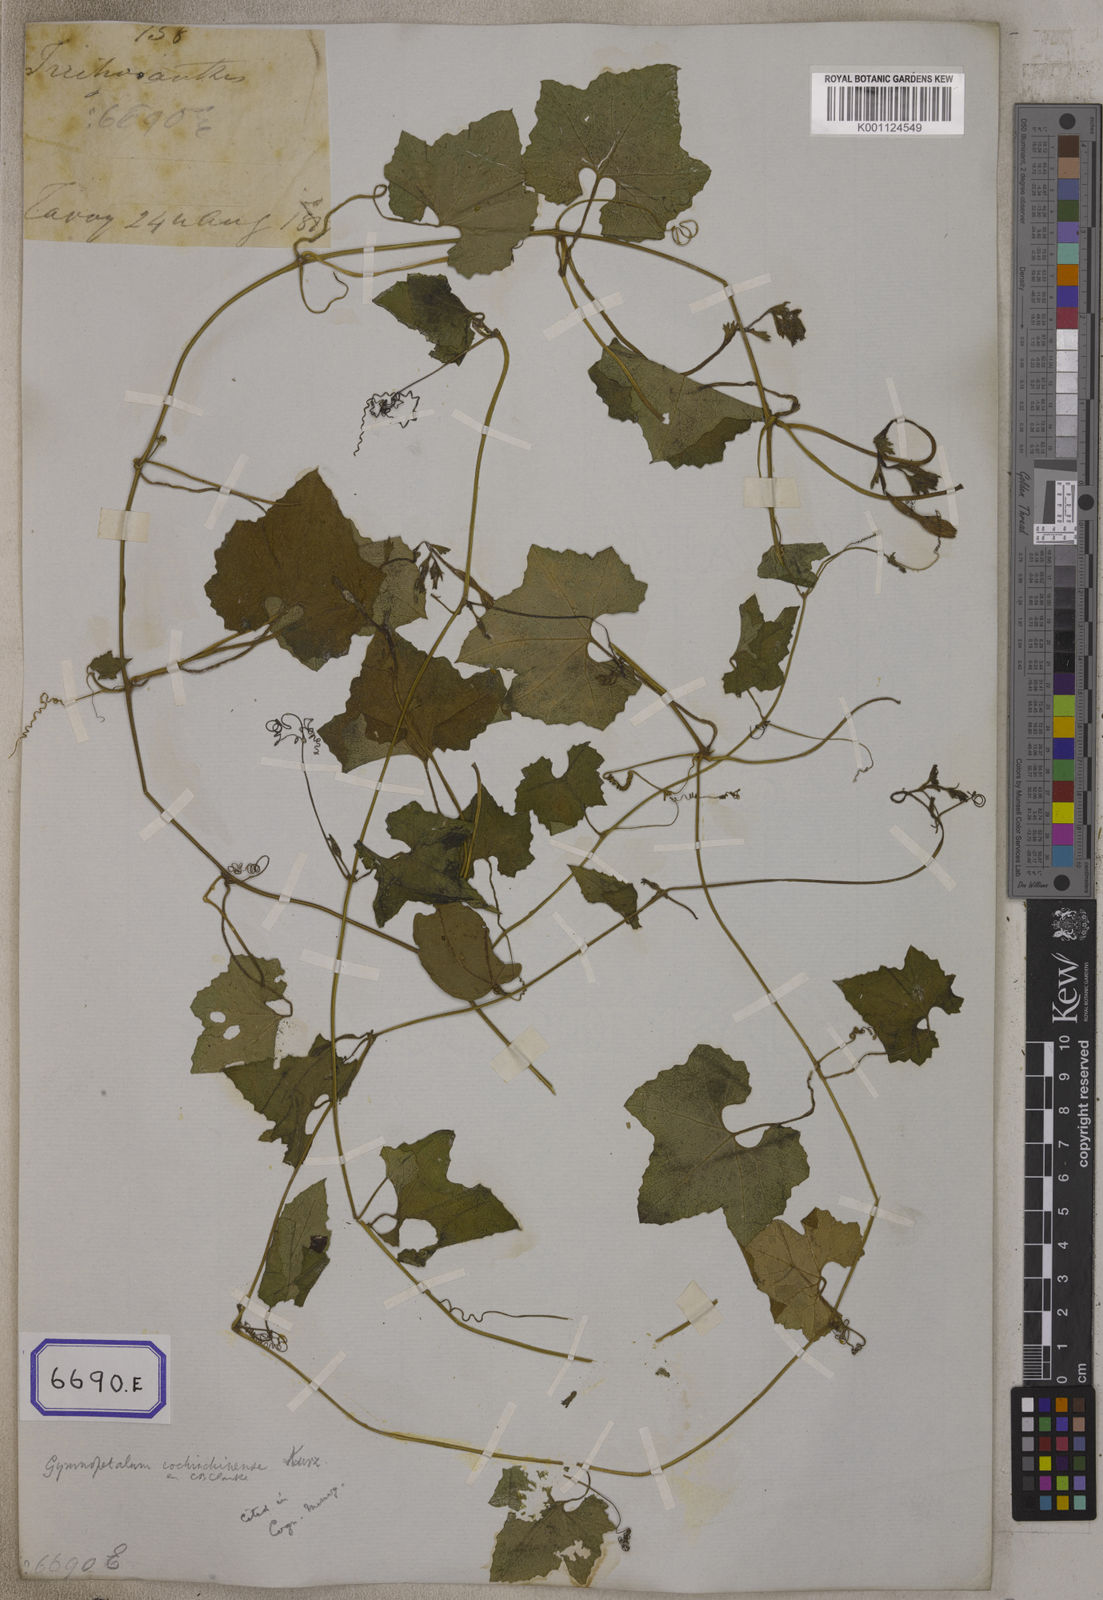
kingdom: Plantae
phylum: Tracheophyta
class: Magnoliopsida
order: Cucurbitales
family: Cucurbitaceae
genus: Trichosanthes
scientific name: Trichosanthes
